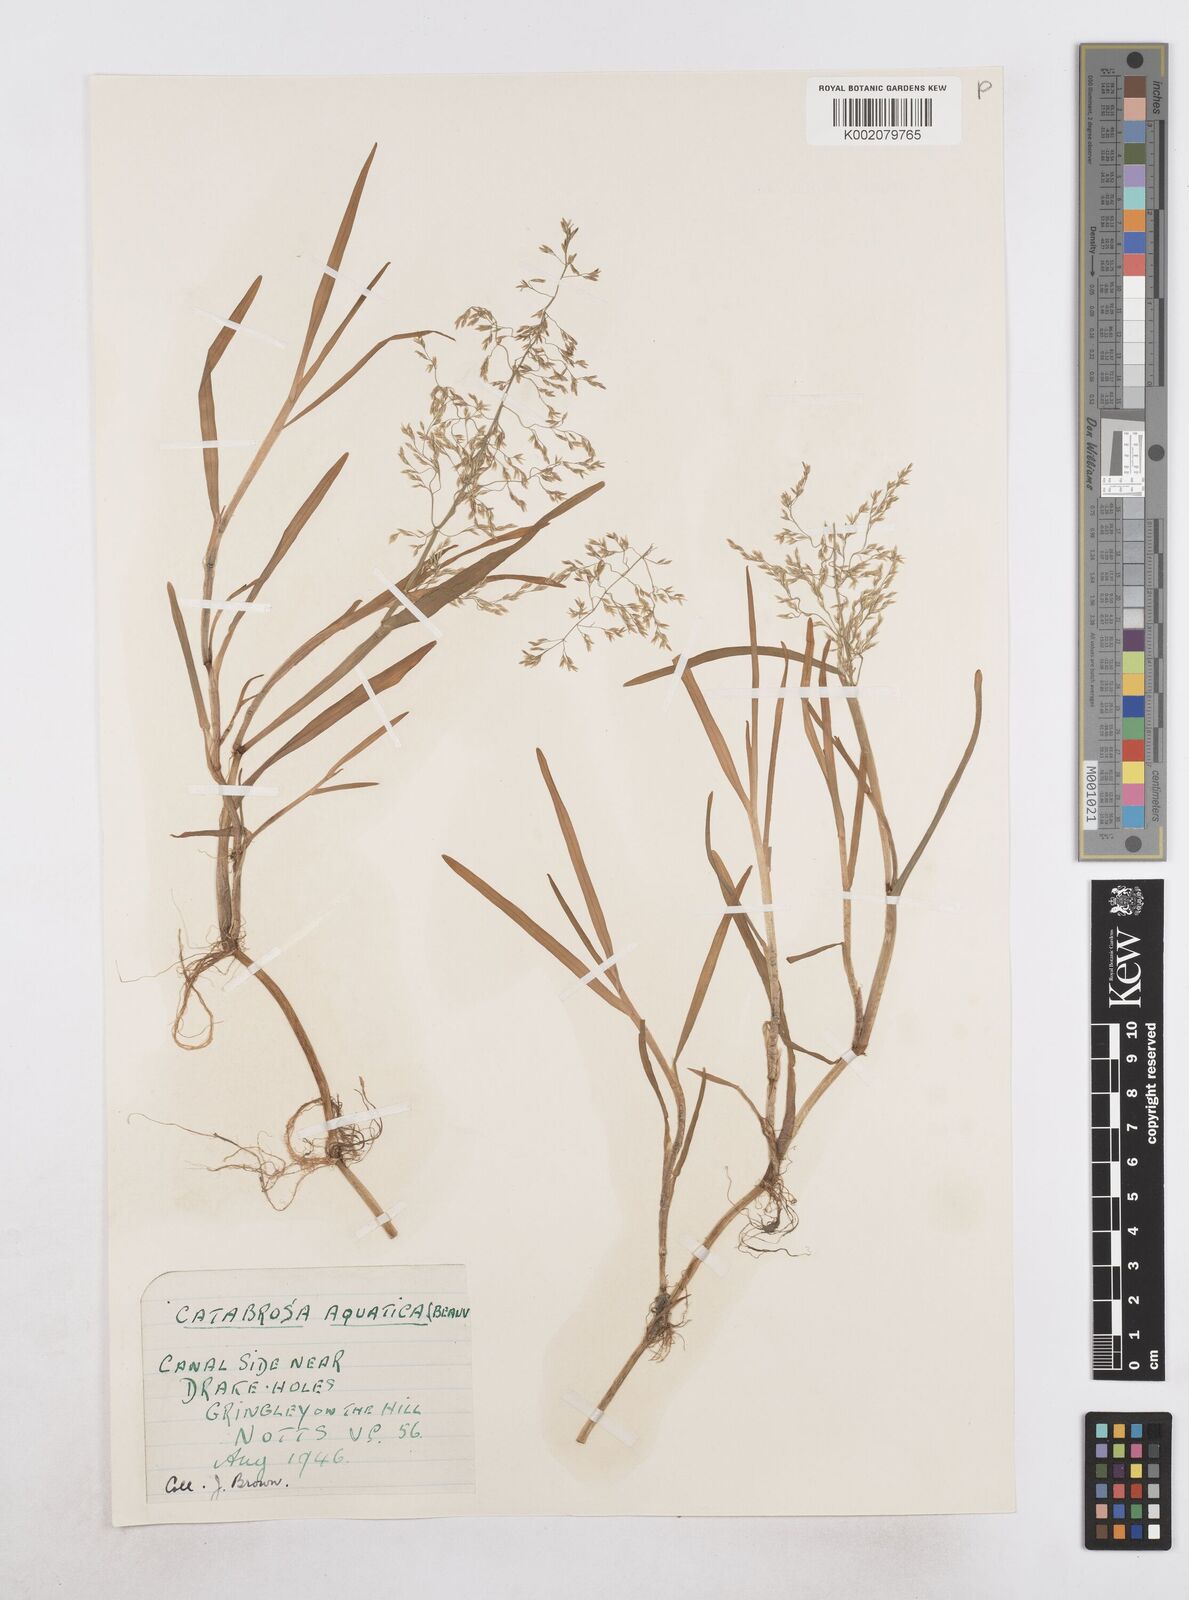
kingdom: Plantae
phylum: Tracheophyta
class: Liliopsida
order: Poales
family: Poaceae
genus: Catabrosa
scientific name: Catabrosa aquatica
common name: Whorl-grass
